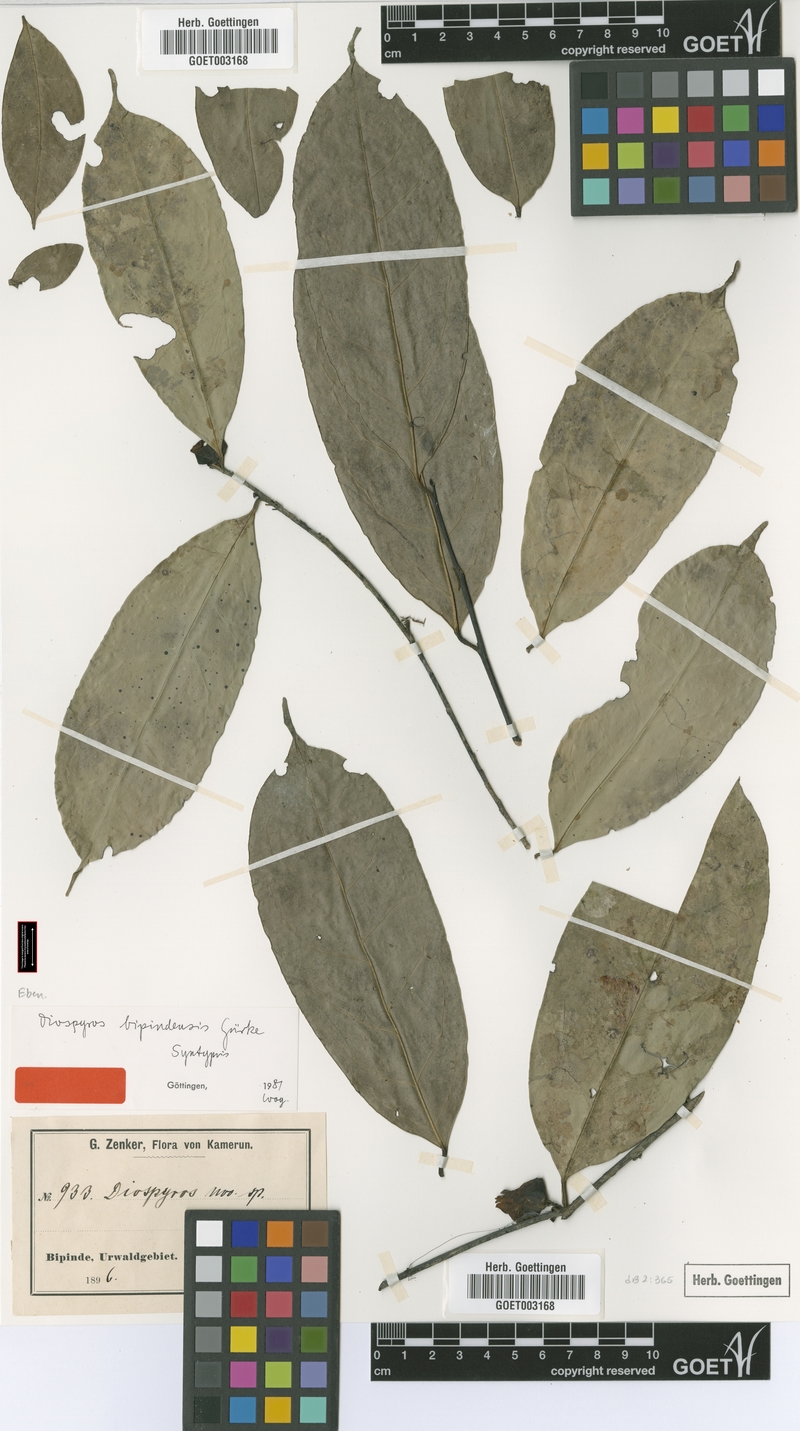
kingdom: Plantae
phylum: Tracheophyta
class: Magnoliopsida
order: Ericales
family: Ebenaceae
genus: Diospyros
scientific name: Diospyros bipindensis
